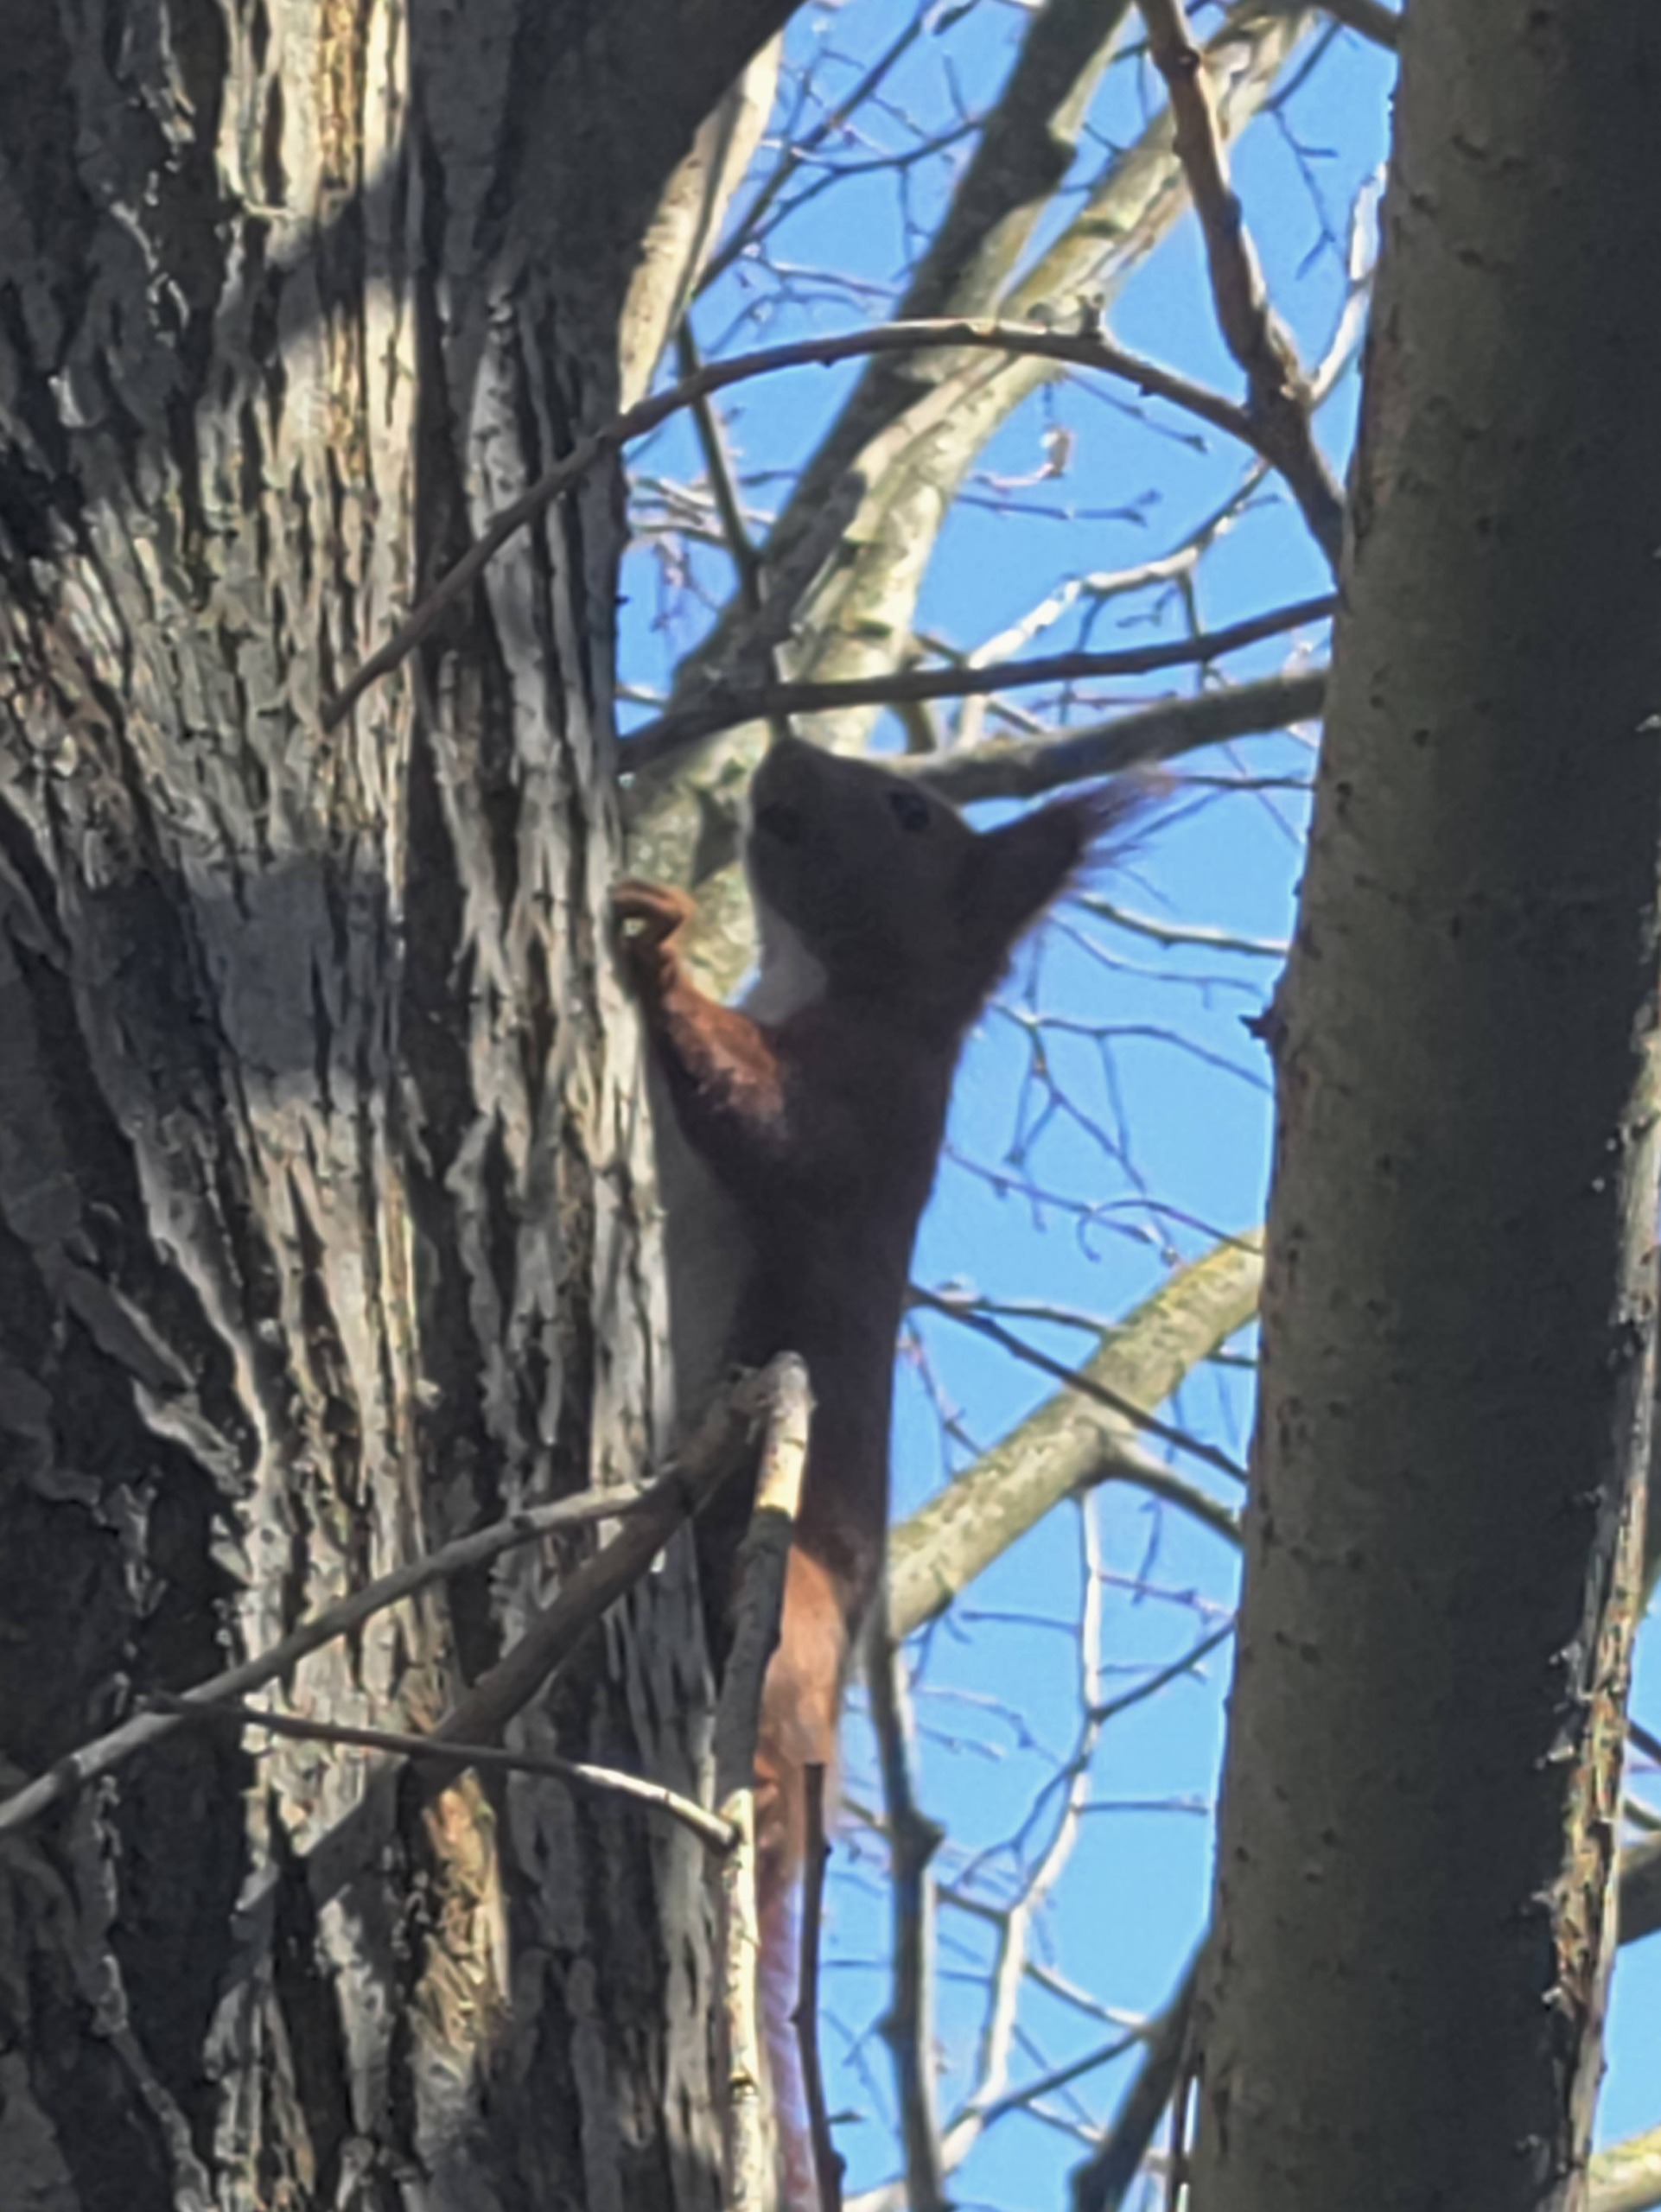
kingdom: Animalia
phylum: Chordata
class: Mammalia
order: Rodentia
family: Sciuridae
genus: Sciurus
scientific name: Sciurus vulgaris
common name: Egern
